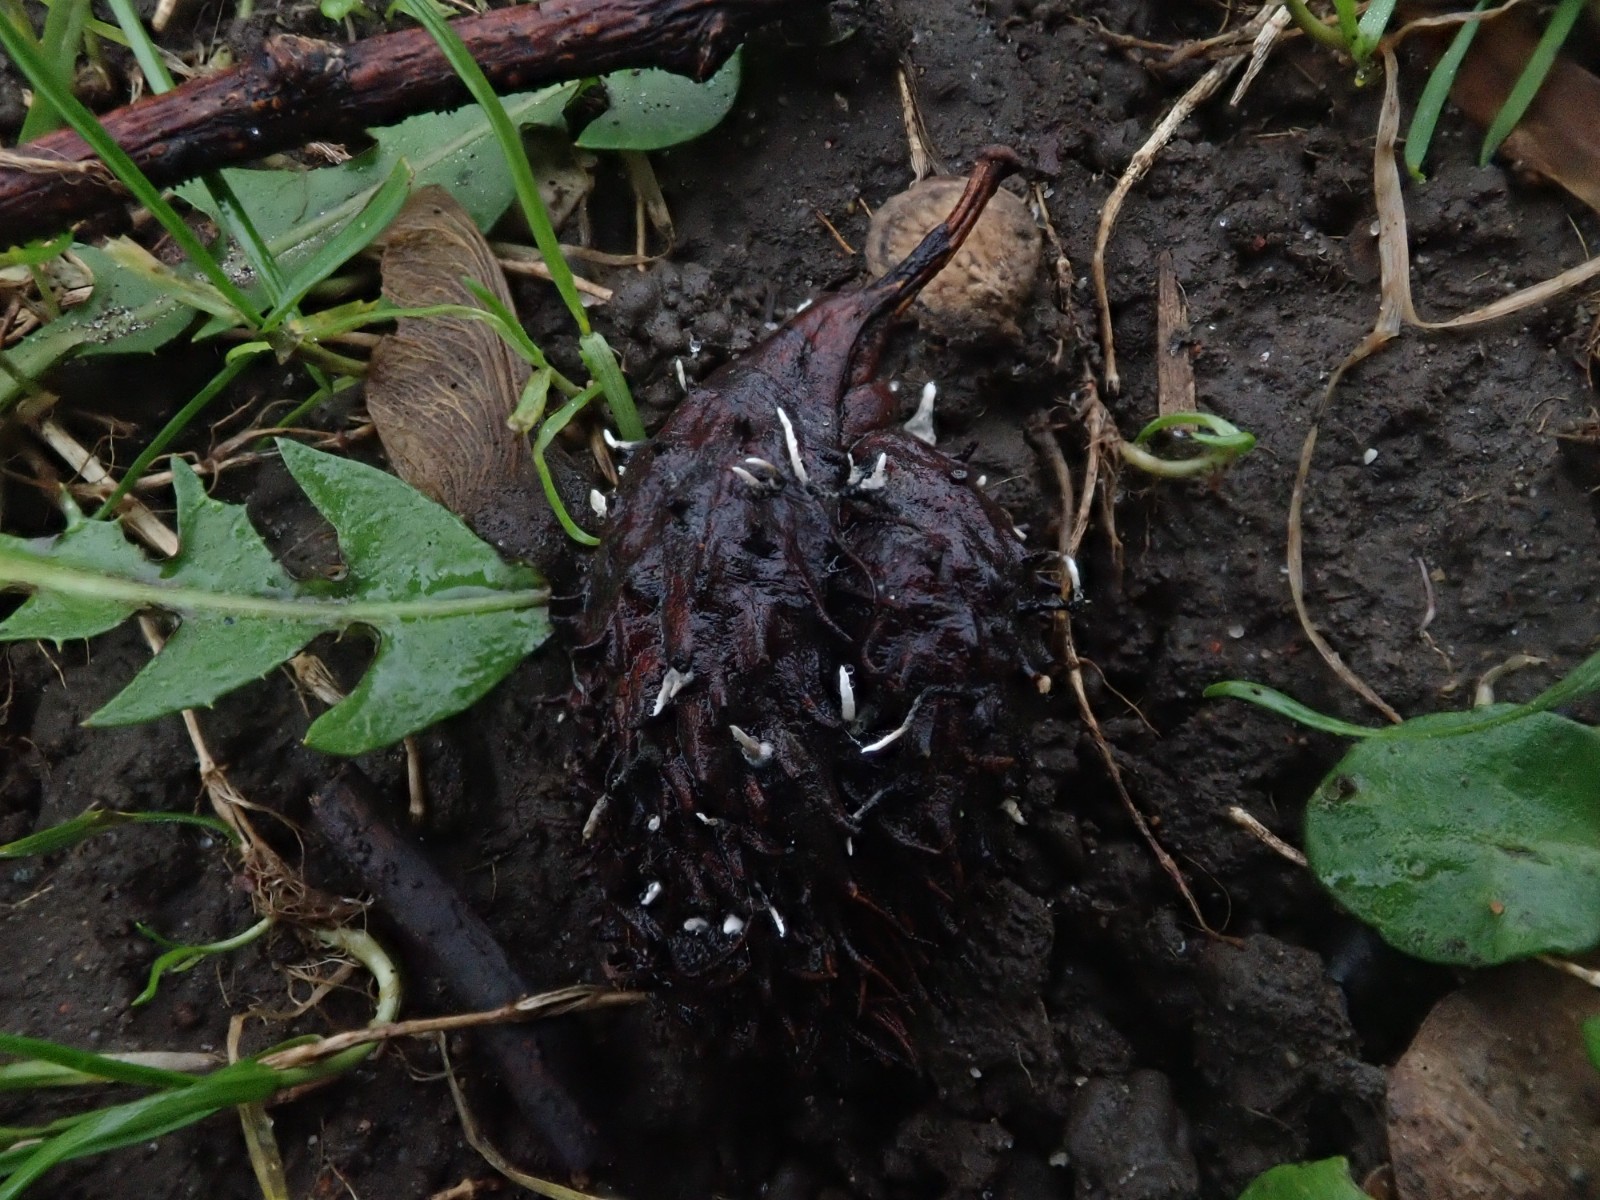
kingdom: Fungi
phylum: Ascomycota
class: Sordariomycetes
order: Xylariales
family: Xylariaceae
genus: Xylaria
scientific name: Xylaria carpophila
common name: bogskål-stødsvamp
